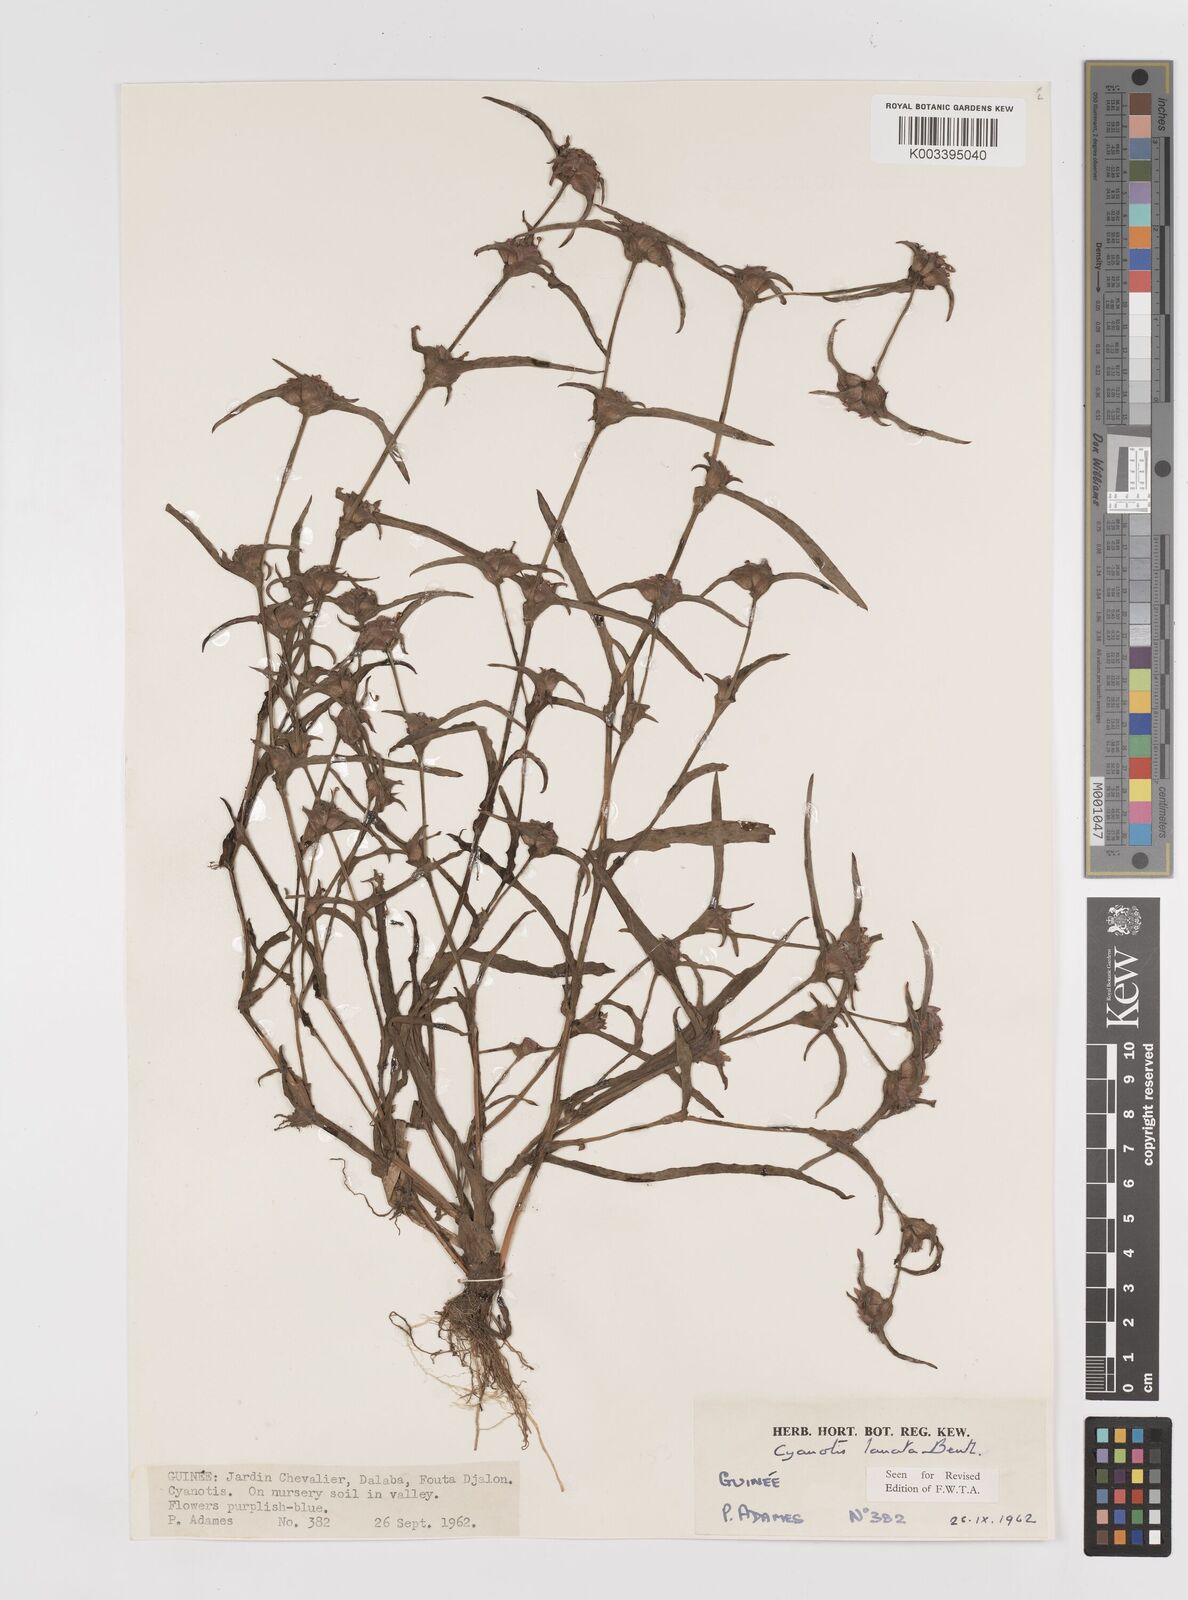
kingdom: Plantae
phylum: Tracheophyta
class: Liliopsida
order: Commelinales
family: Commelinaceae
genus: Cyanotis
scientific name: Cyanotis lanata
